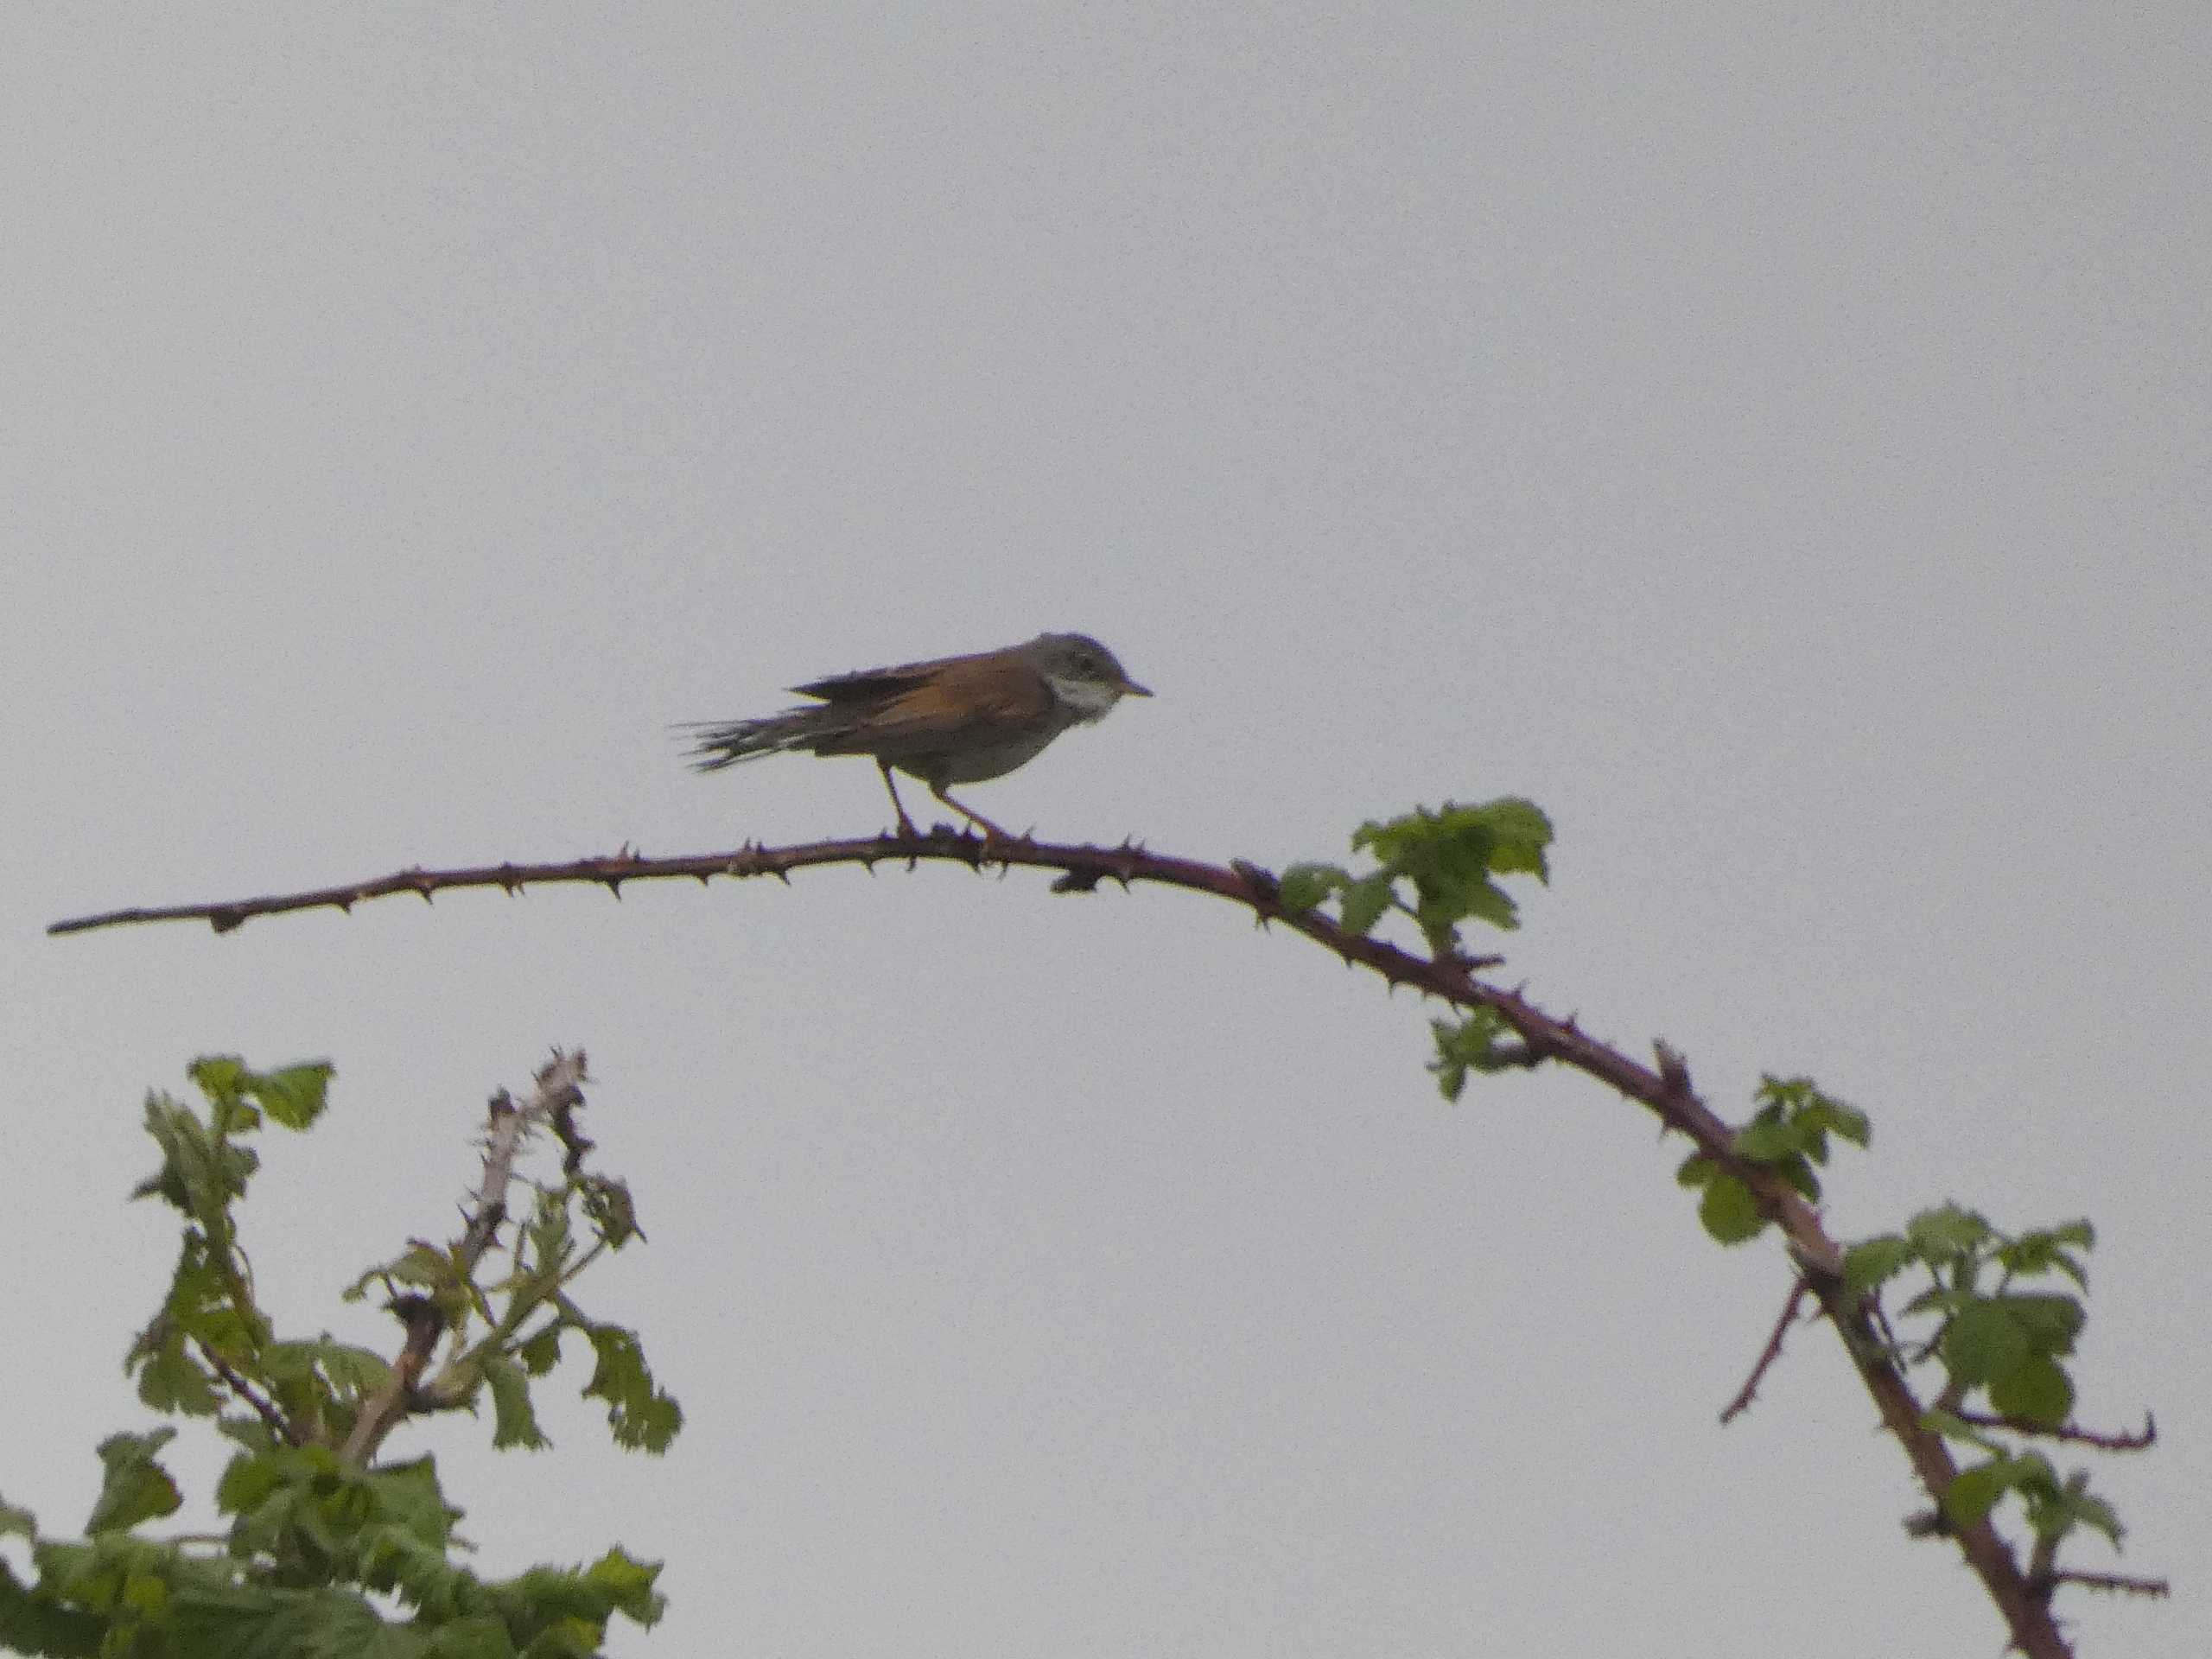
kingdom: Animalia
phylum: Chordata
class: Aves
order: Passeriformes
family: Sylviidae
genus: Sylvia
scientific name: Sylvia communis
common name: Tornsanger
